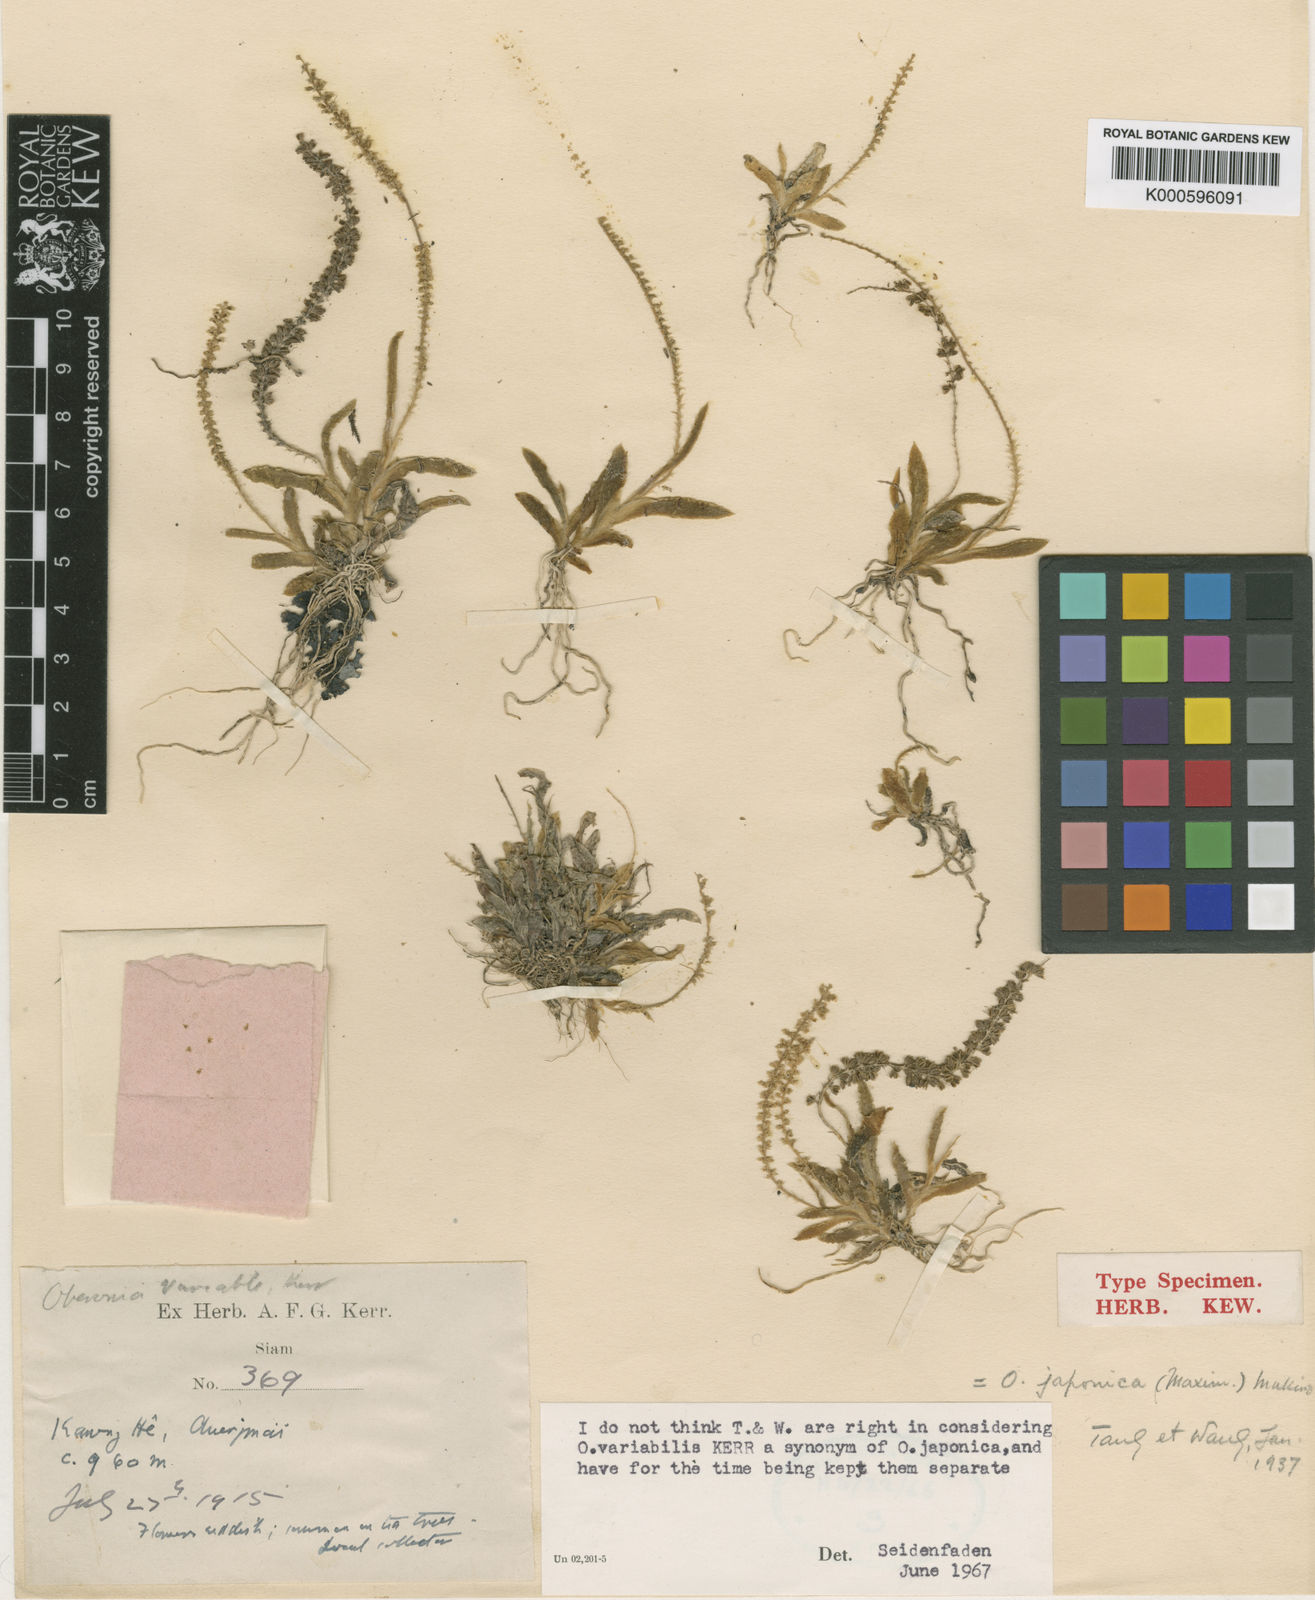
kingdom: Plantae
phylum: Tracheophyta
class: Liliopsida
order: Asparagales
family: Orchidaceae
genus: Oberonia
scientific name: Oberonia japonica
